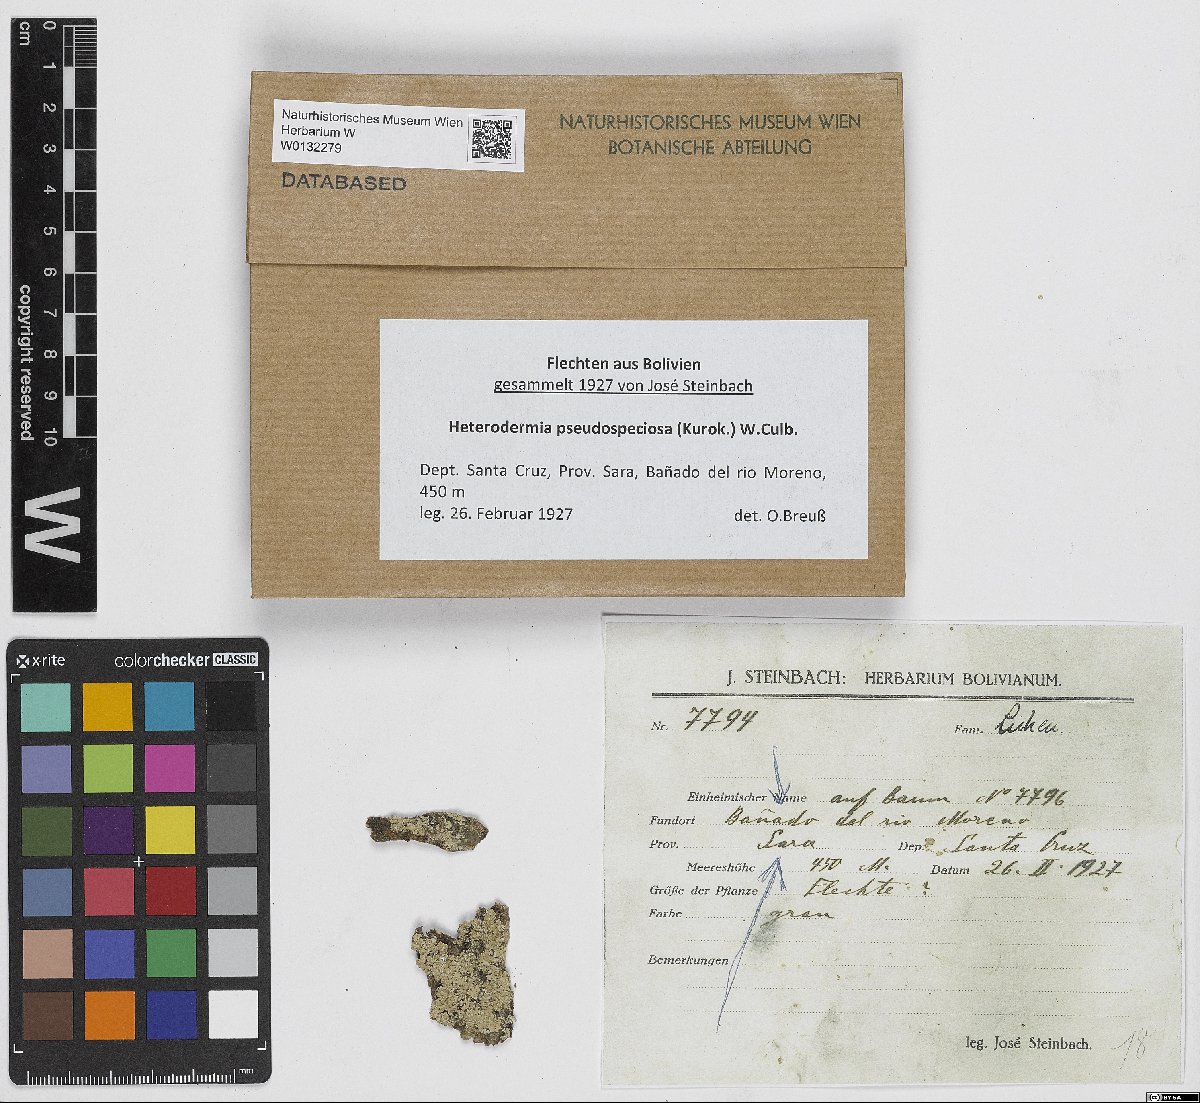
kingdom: Fungi
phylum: Ascomycota
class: Lecanoromycetes
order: Caliciales
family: Physciaceae
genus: Heterodermia
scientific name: Heterodermia pseudospeciosa
